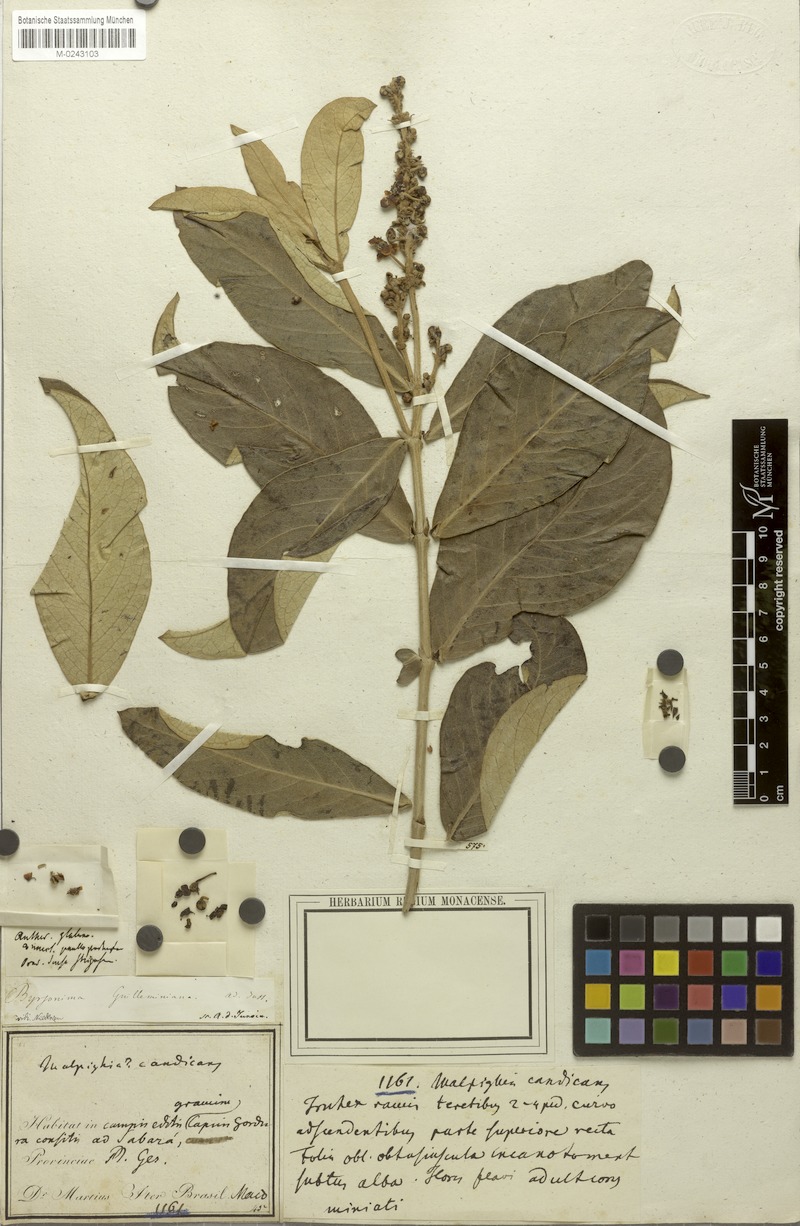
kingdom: Plantae
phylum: Tracheophyta
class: Magnoliopsida
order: Malpighiales
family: Malpighiaceae
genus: Byrsonima
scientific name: Byrsonima guilleminiana
